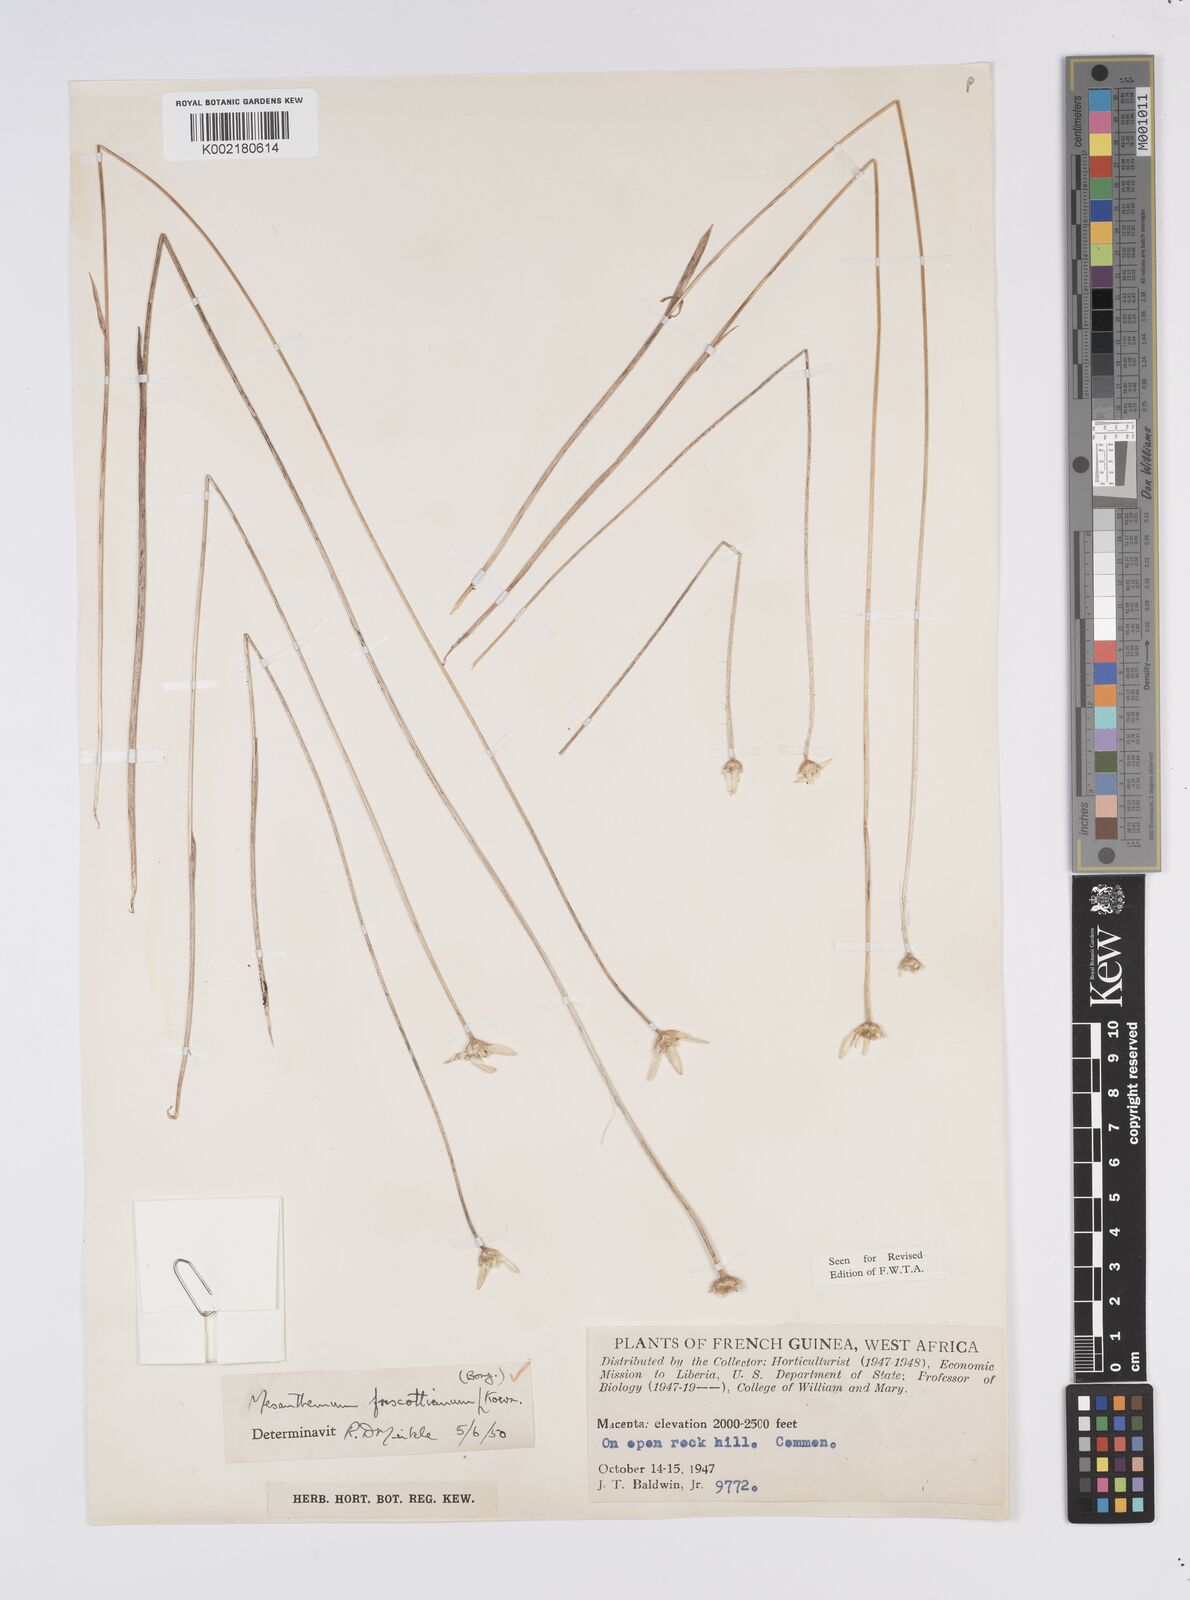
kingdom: Plantae
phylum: Tracheophyta
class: Liliopsida
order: Poales
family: Eriocaulaceae
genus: Mesanthemum
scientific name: Mesanthemum prescottianum
